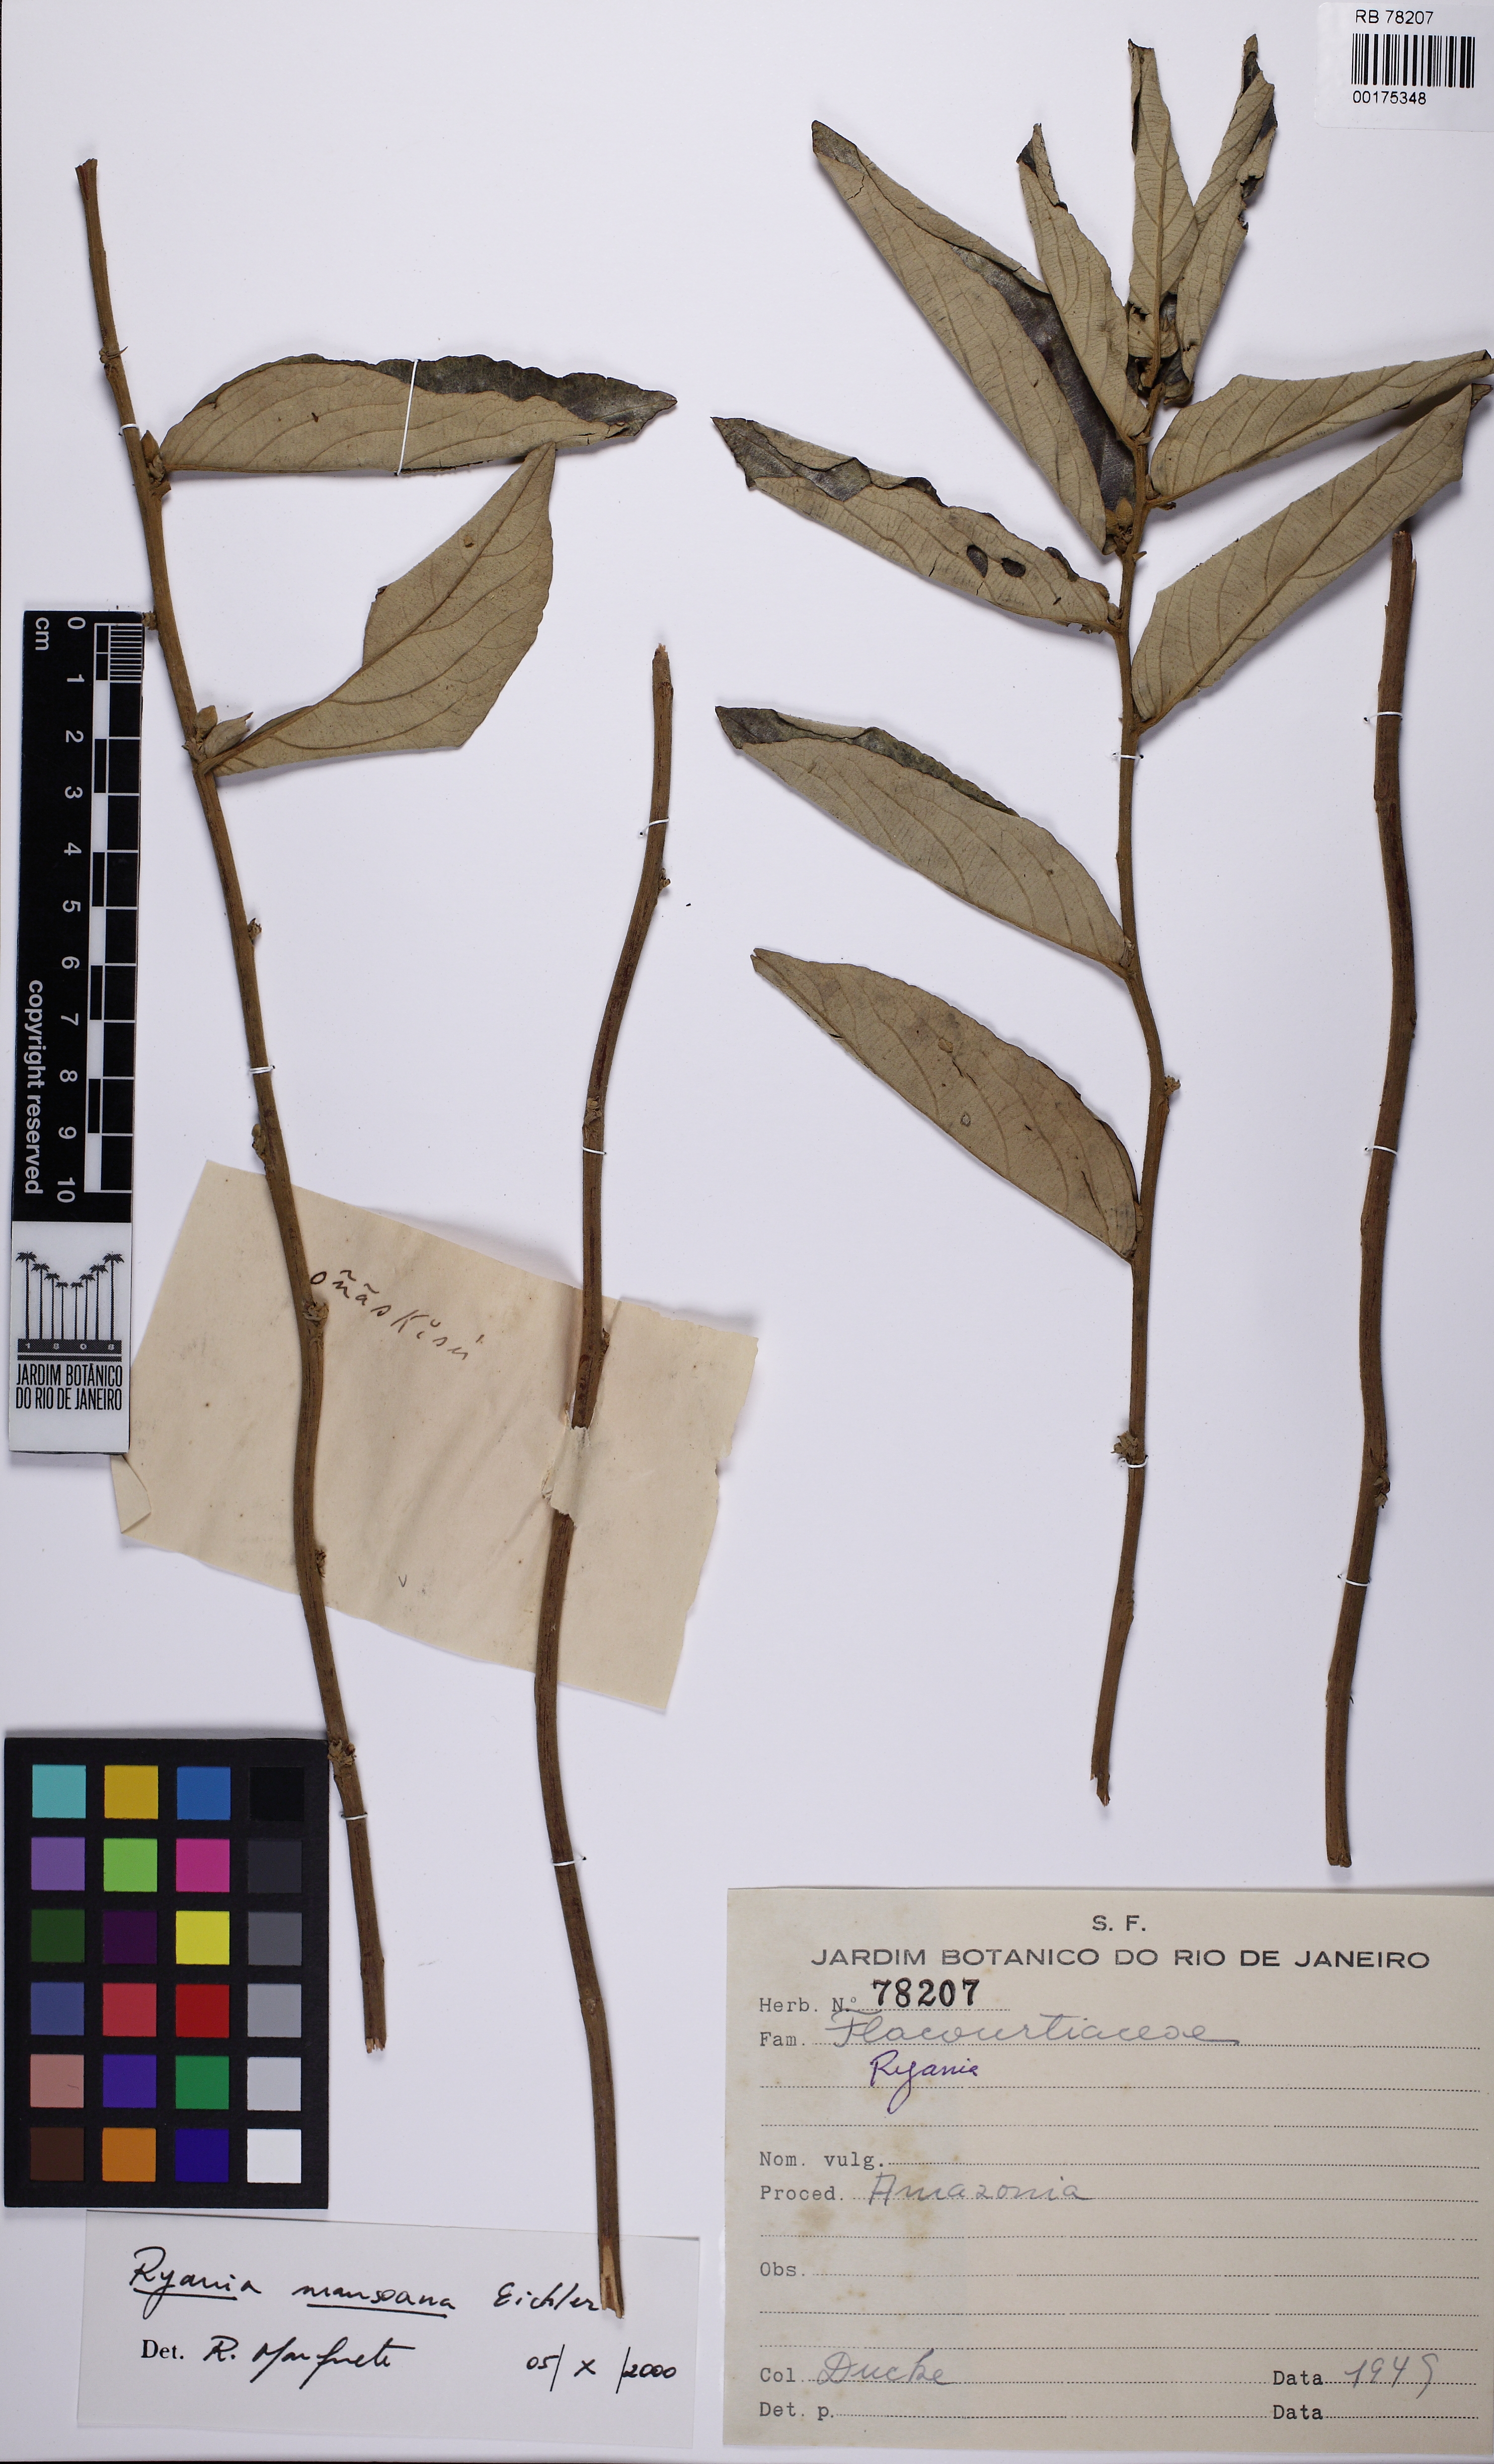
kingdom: Plantae
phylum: Tracheophyta
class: Magnoliopsida
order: Malpighiales
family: Salicaceae
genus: Ryania
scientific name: Ryania mansoana
